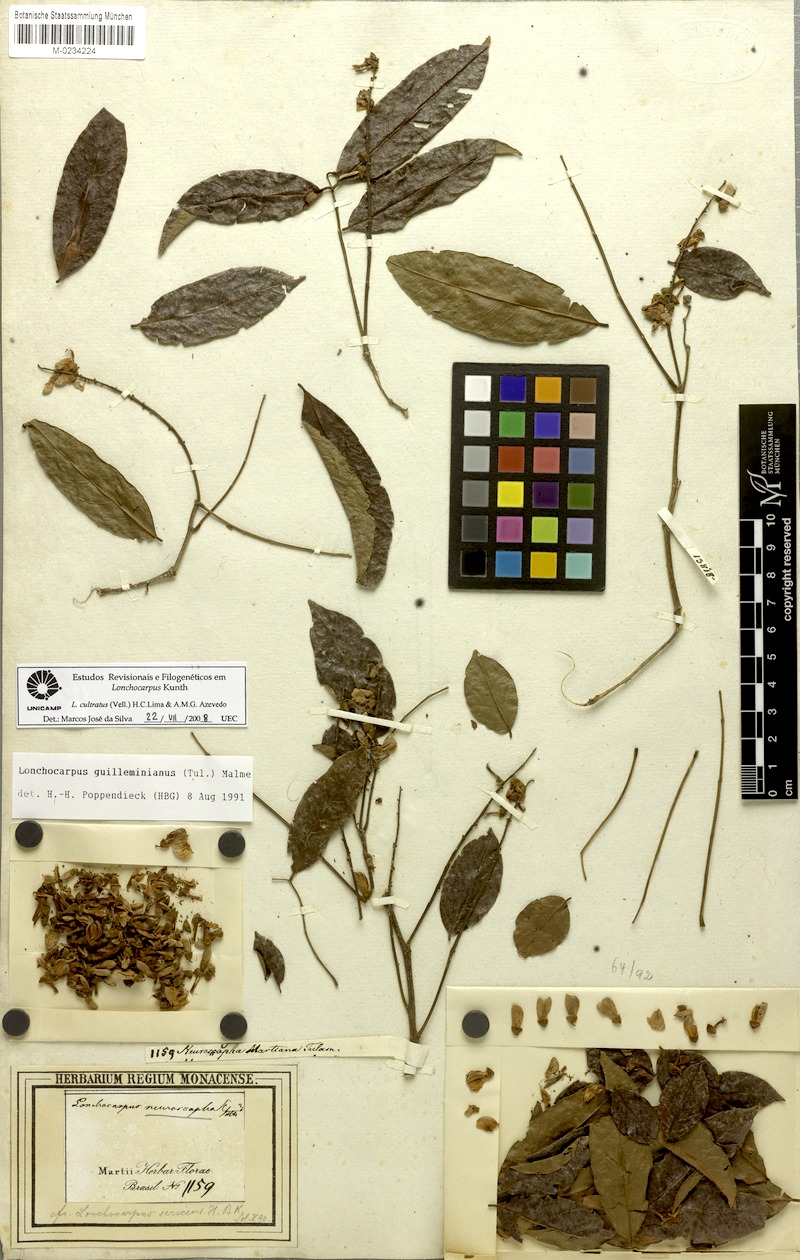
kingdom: Plantae
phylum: Tracheophyta
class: Magnoliopsida
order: Fabales
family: Fabaceae
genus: Lonchocarpus
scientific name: Lonchocarpus cultratus
